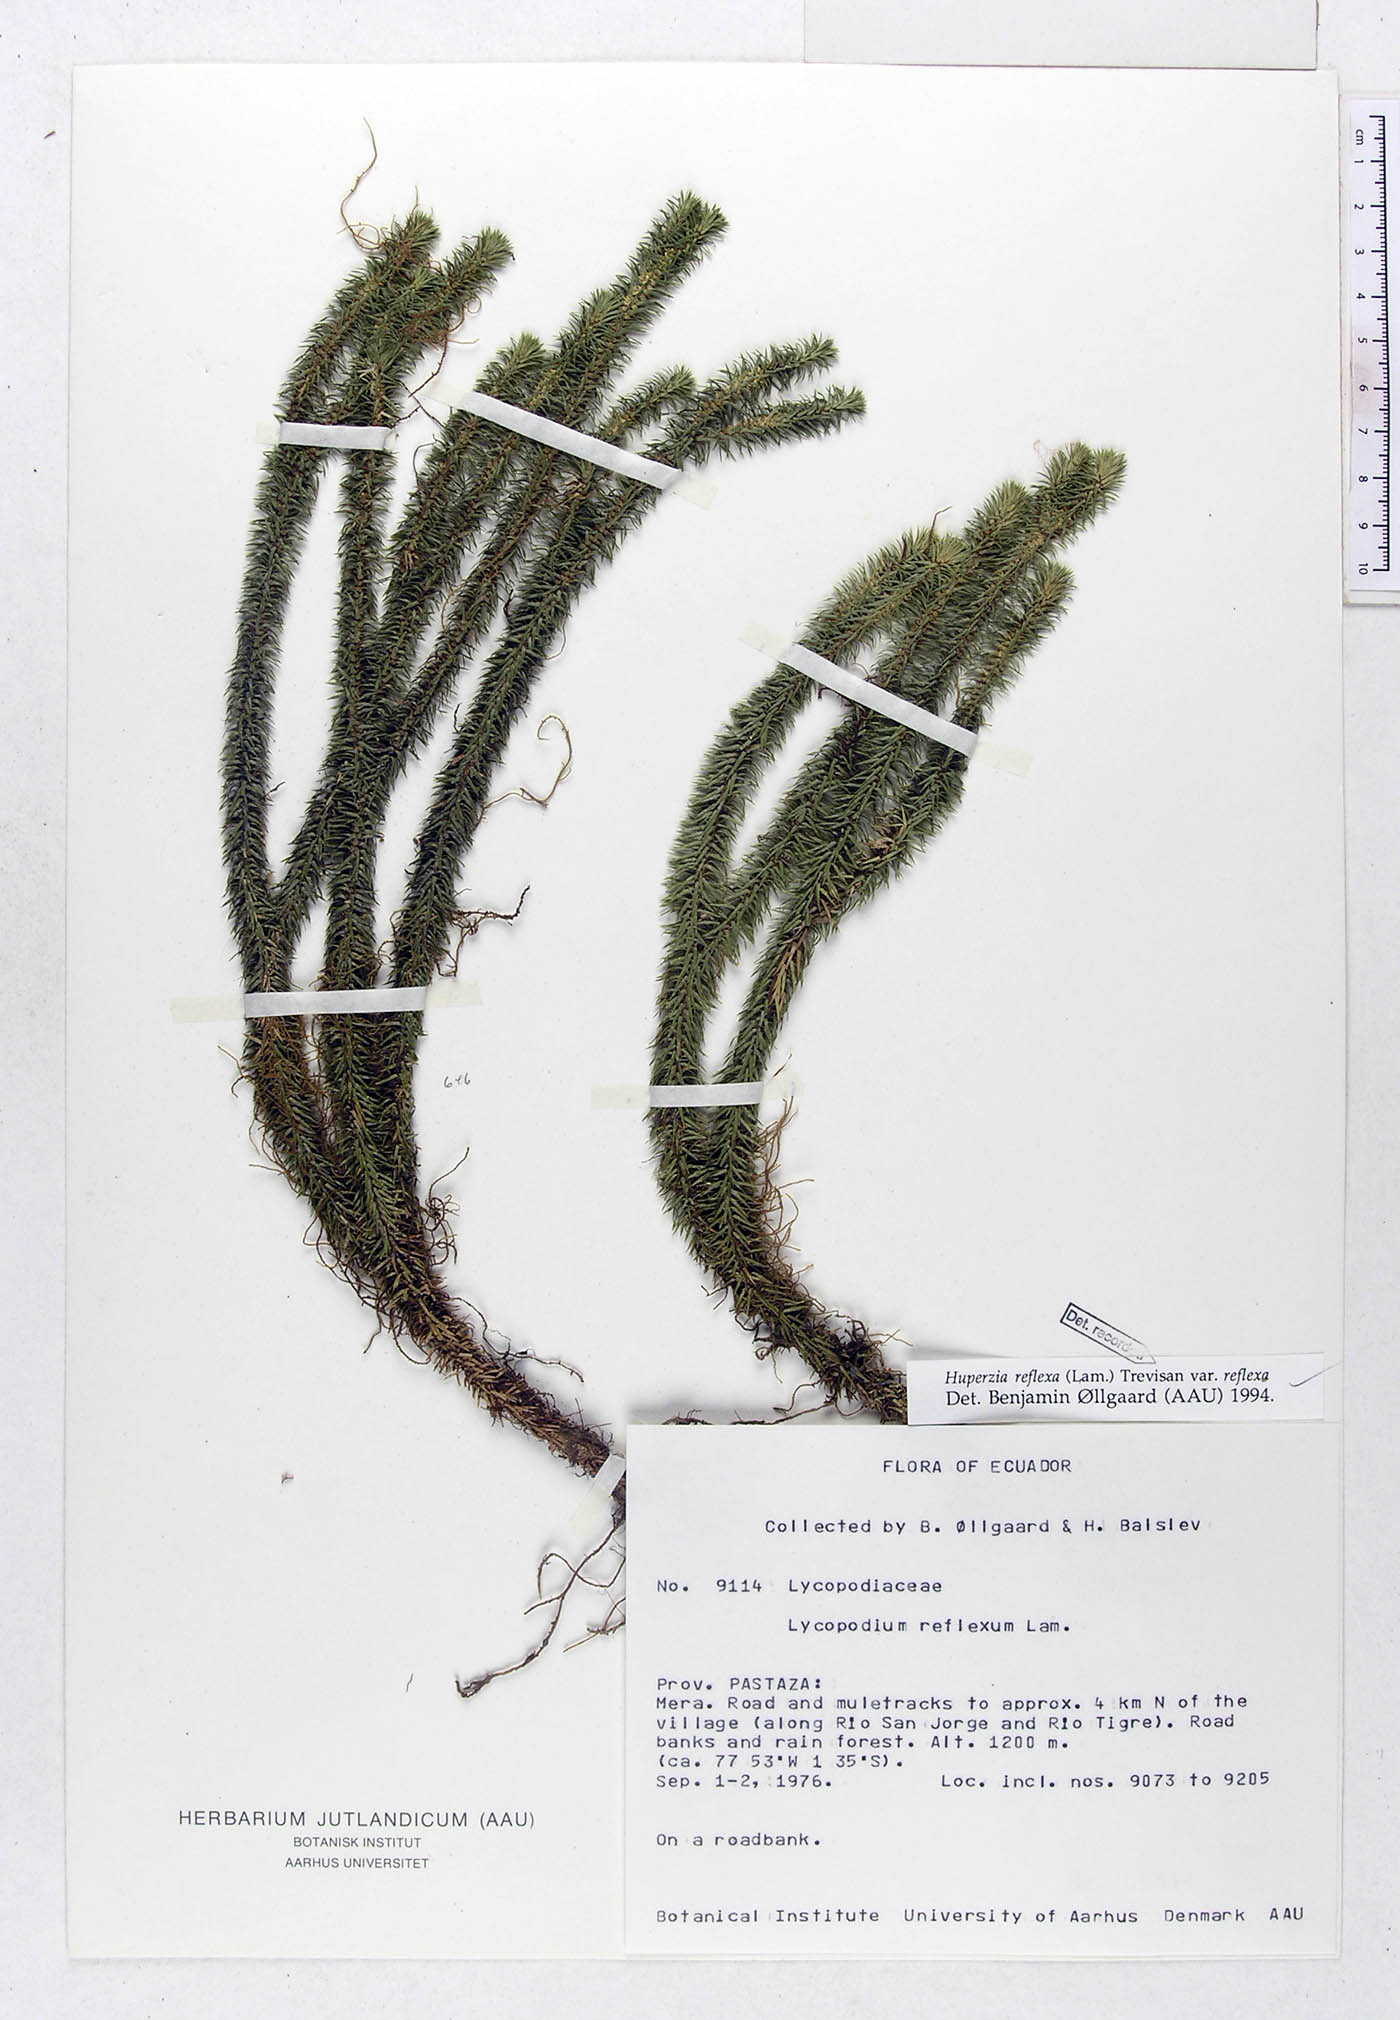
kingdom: Plantae
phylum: Tracheophyta
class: Lycopodiopsida
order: Lycopodiales
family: Lycopodiaceae
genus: Phlegmariurus
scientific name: Phlegmariurus reflexus
